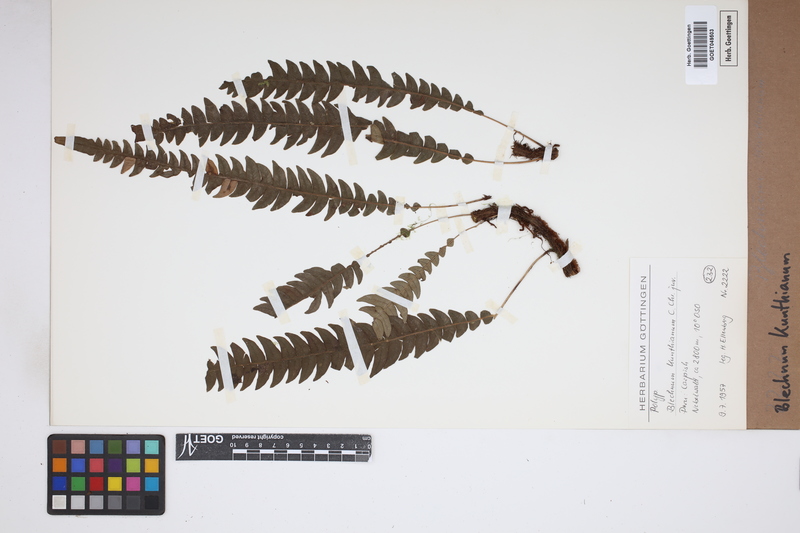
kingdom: Plantae
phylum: Tracheophyta
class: Polypodiopsida
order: Polypodiales
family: Blechnaceae
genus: Lomaridium
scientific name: Lomaridium acutum
